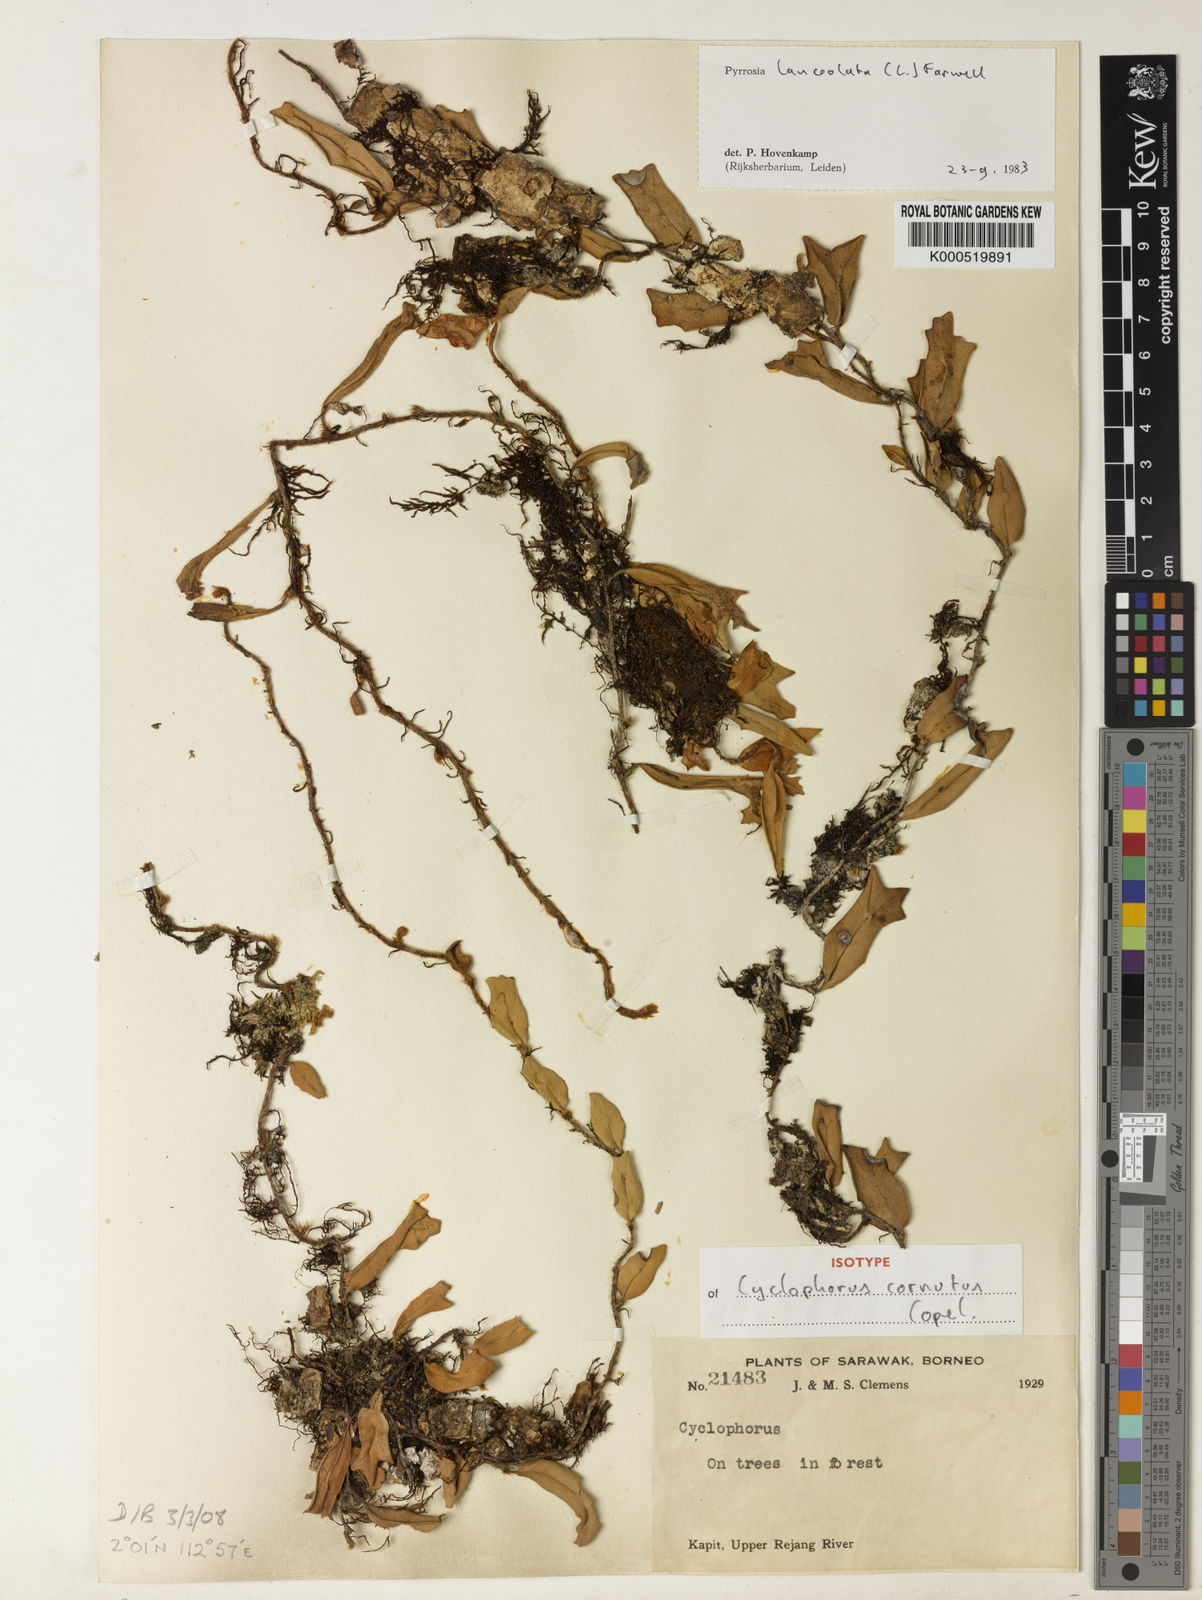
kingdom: Plantae
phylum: Tracheophyta
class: Polypodiopsida
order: Polypodiales
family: Polypodiaceae
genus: Pyrrosia
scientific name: Pyrrosia
